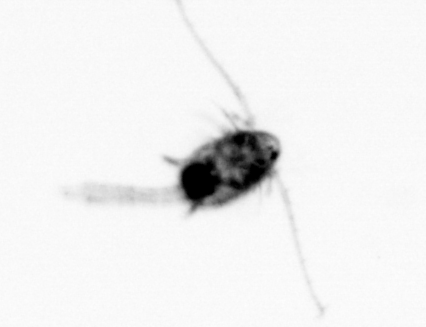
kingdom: Animalia
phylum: Arthropoda
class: Copepoda
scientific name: Copepoda
